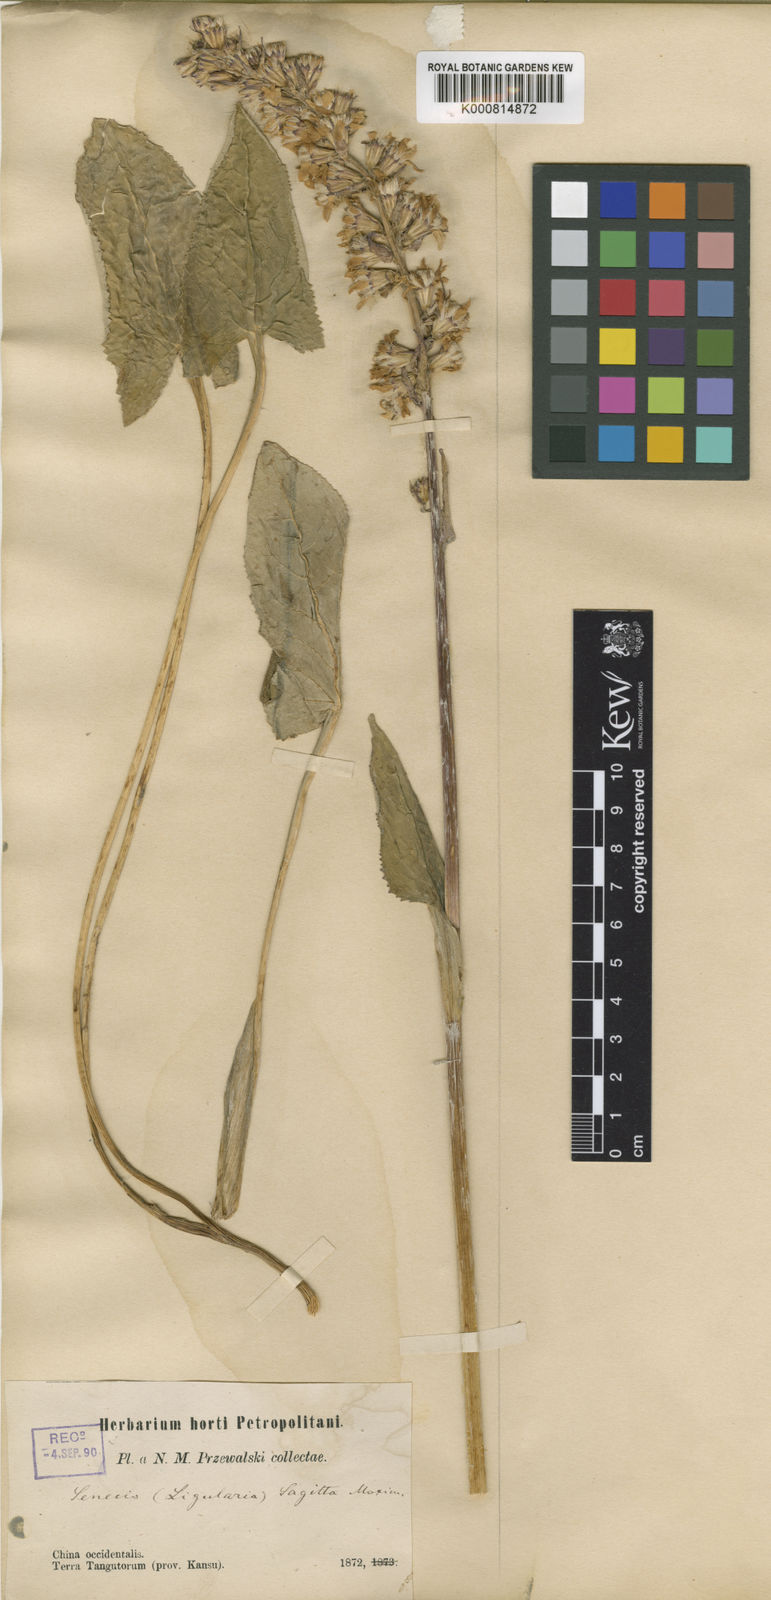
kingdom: Plantae
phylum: Tracheophyta
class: Magnoliopsida
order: Asterales
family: Asteraceae
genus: Ligularia
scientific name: Ligularia sagitta
